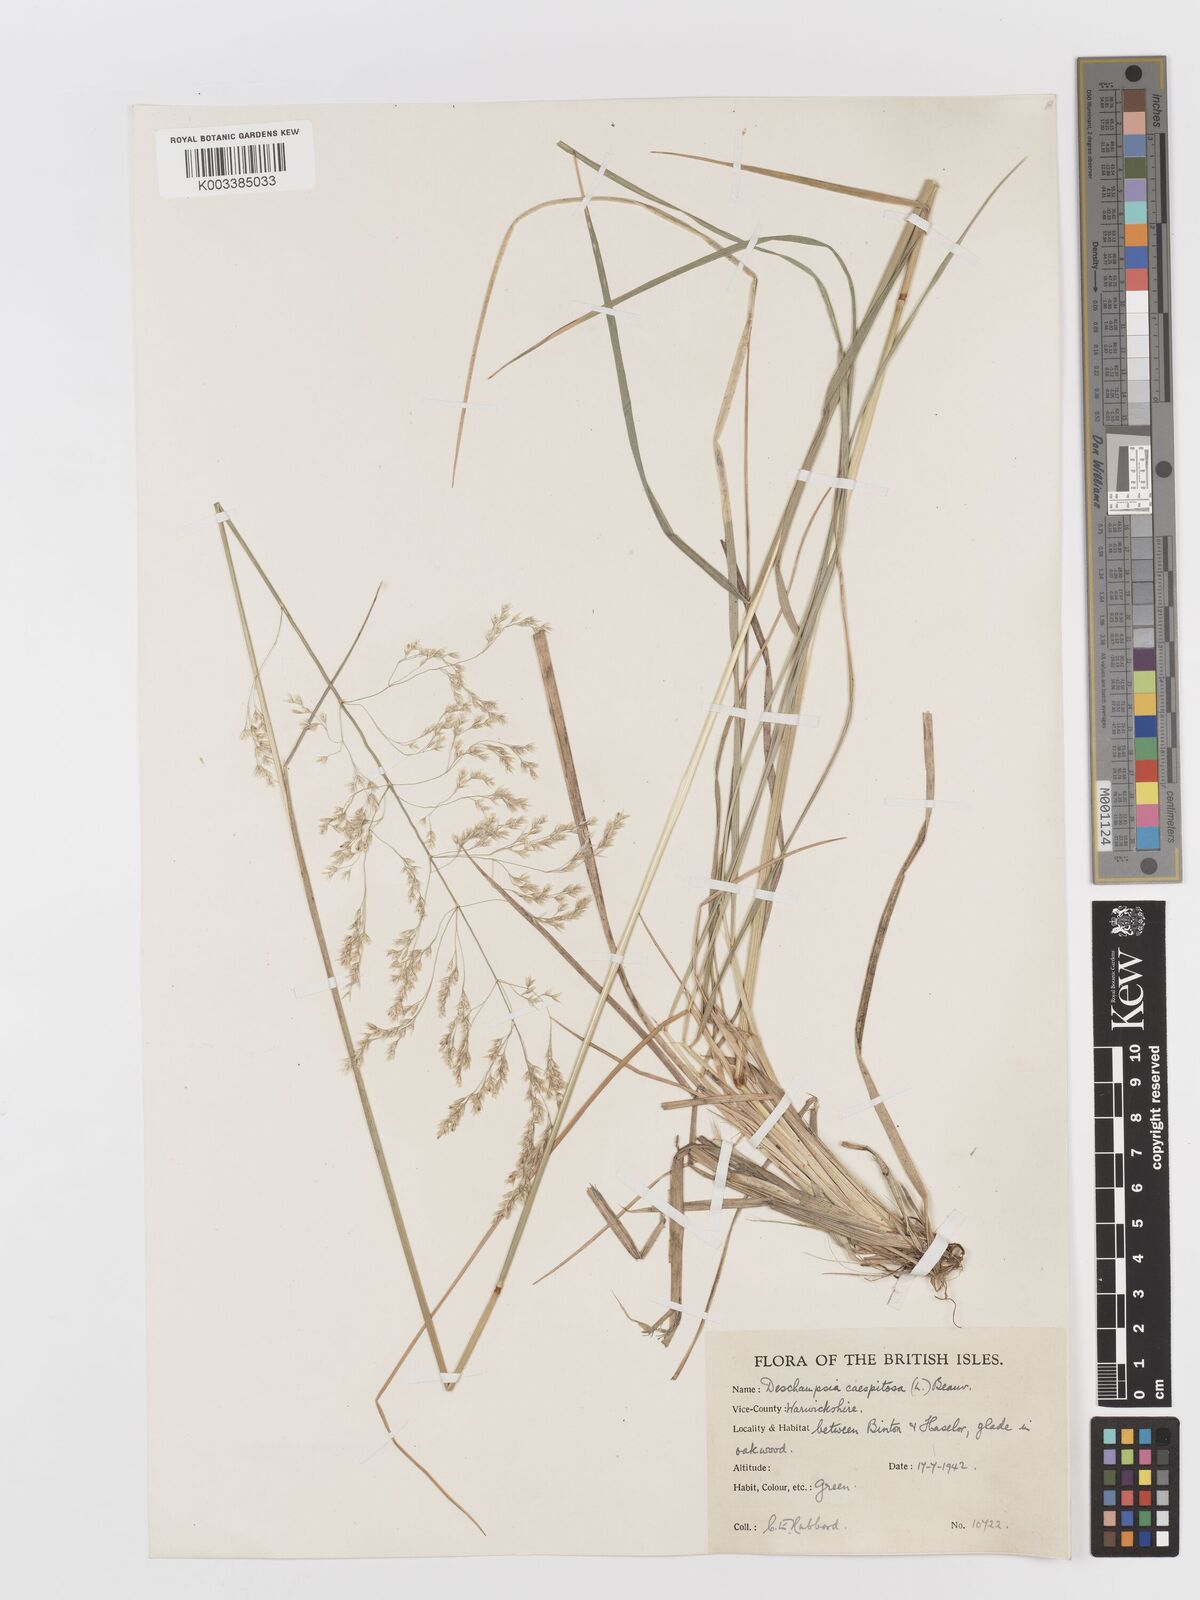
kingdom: Plantae
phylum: Tracheophyta
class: Liliopsida
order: Poales
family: Poaceae
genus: Deschampsia
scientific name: Deschampsia cespitosa
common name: Tufted hair-grass
